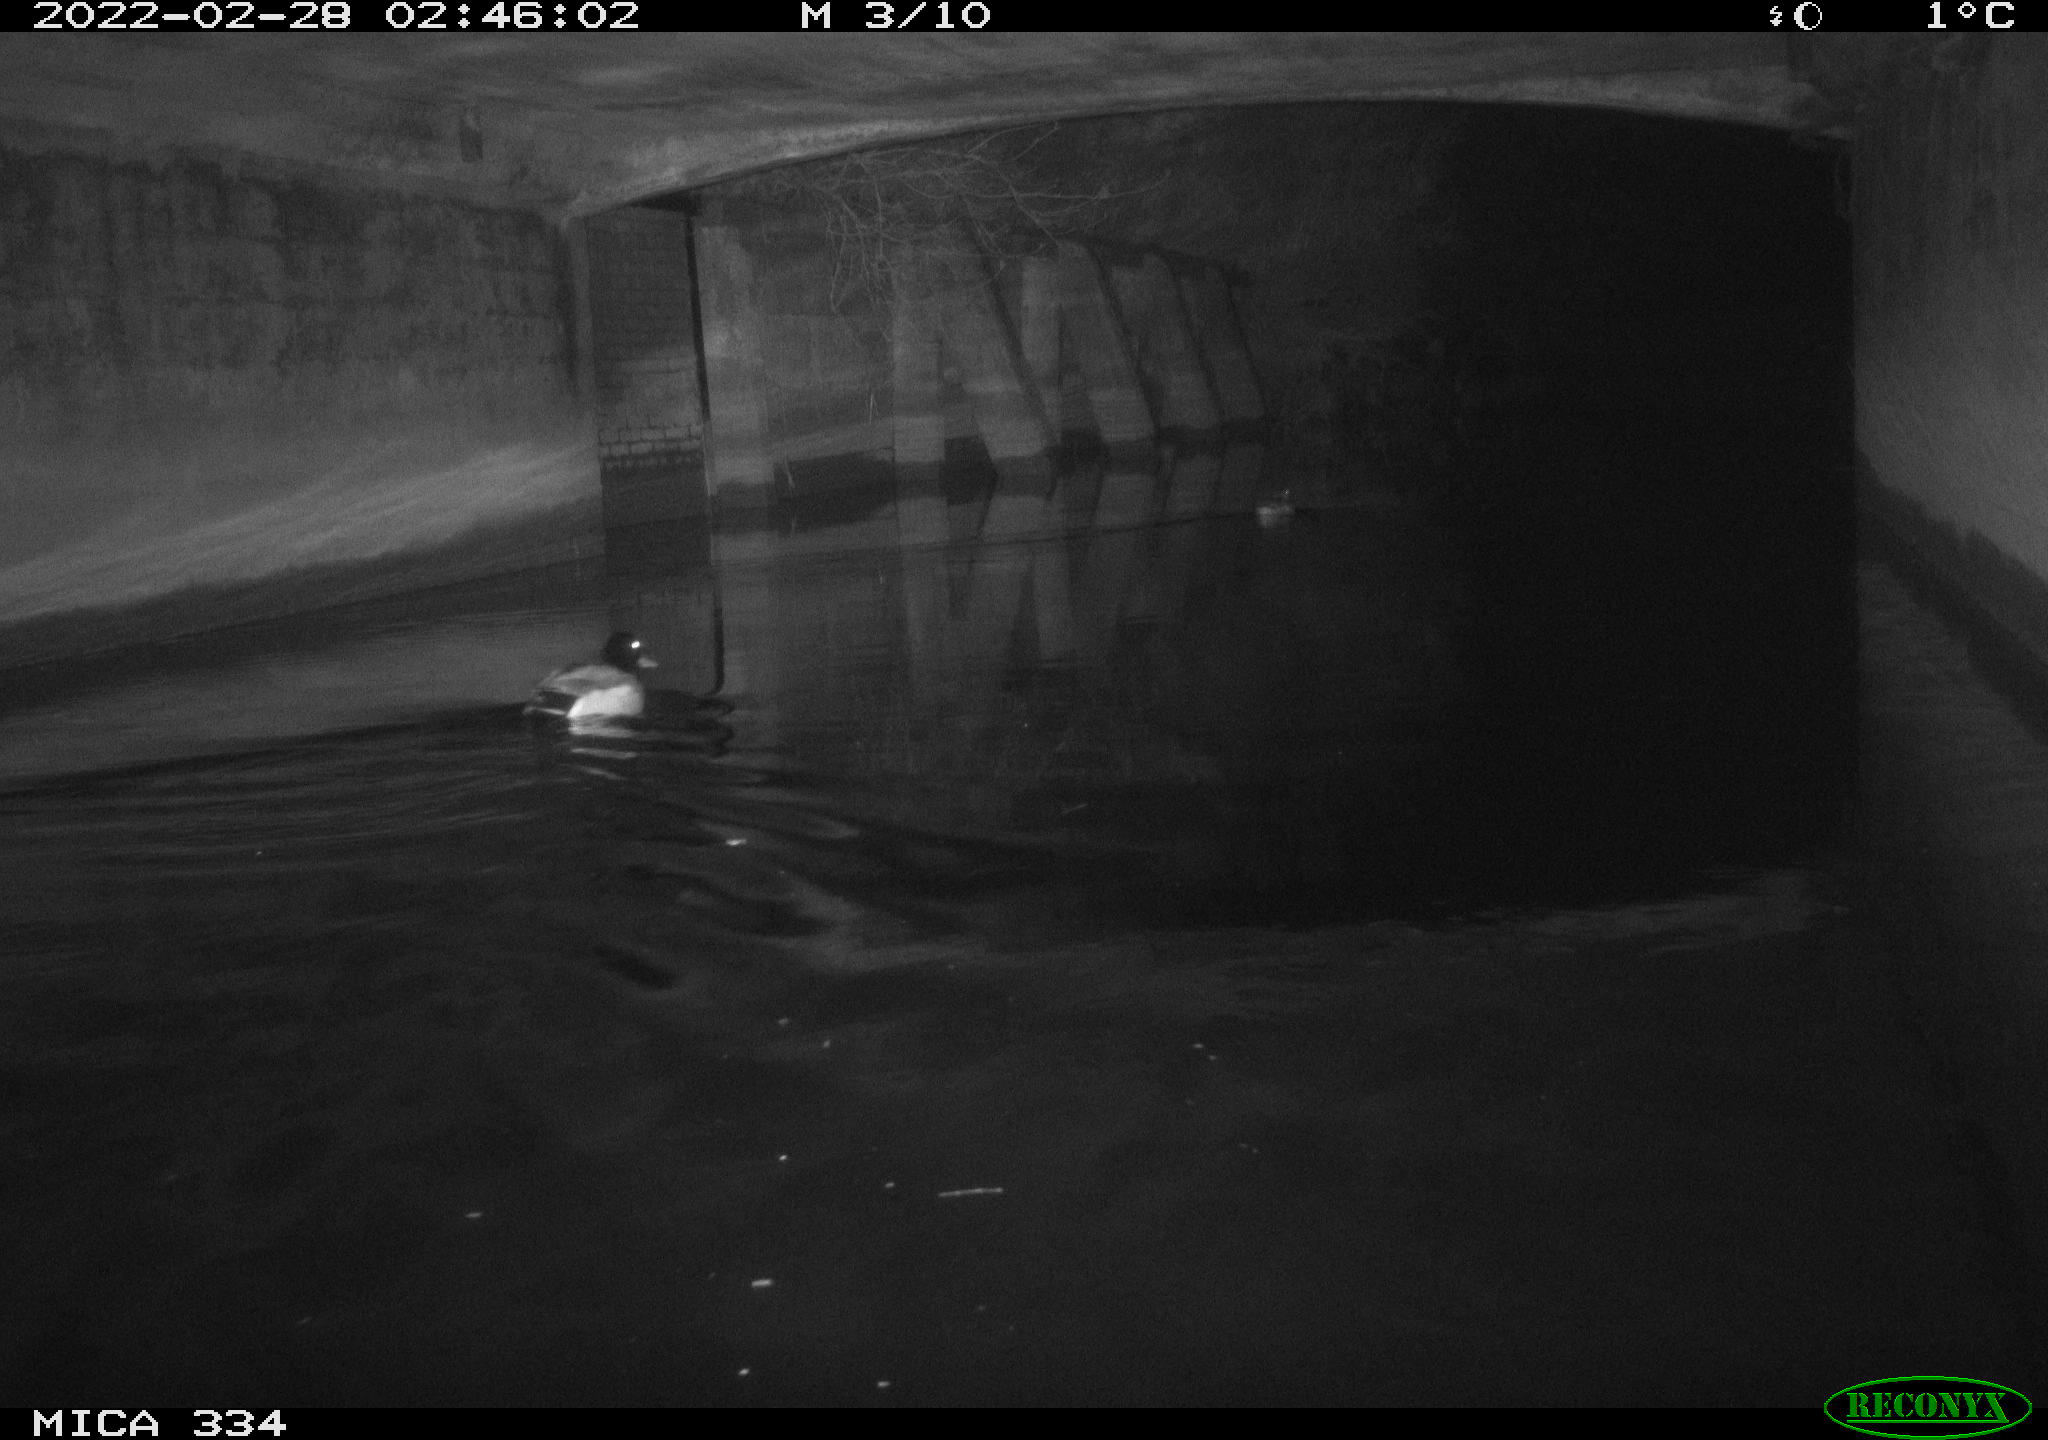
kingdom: Animalia
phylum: Chordata
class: Aves
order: Anseriformes
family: Anatidae
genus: Anas
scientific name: Anas platyrhynchos
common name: Mallard
